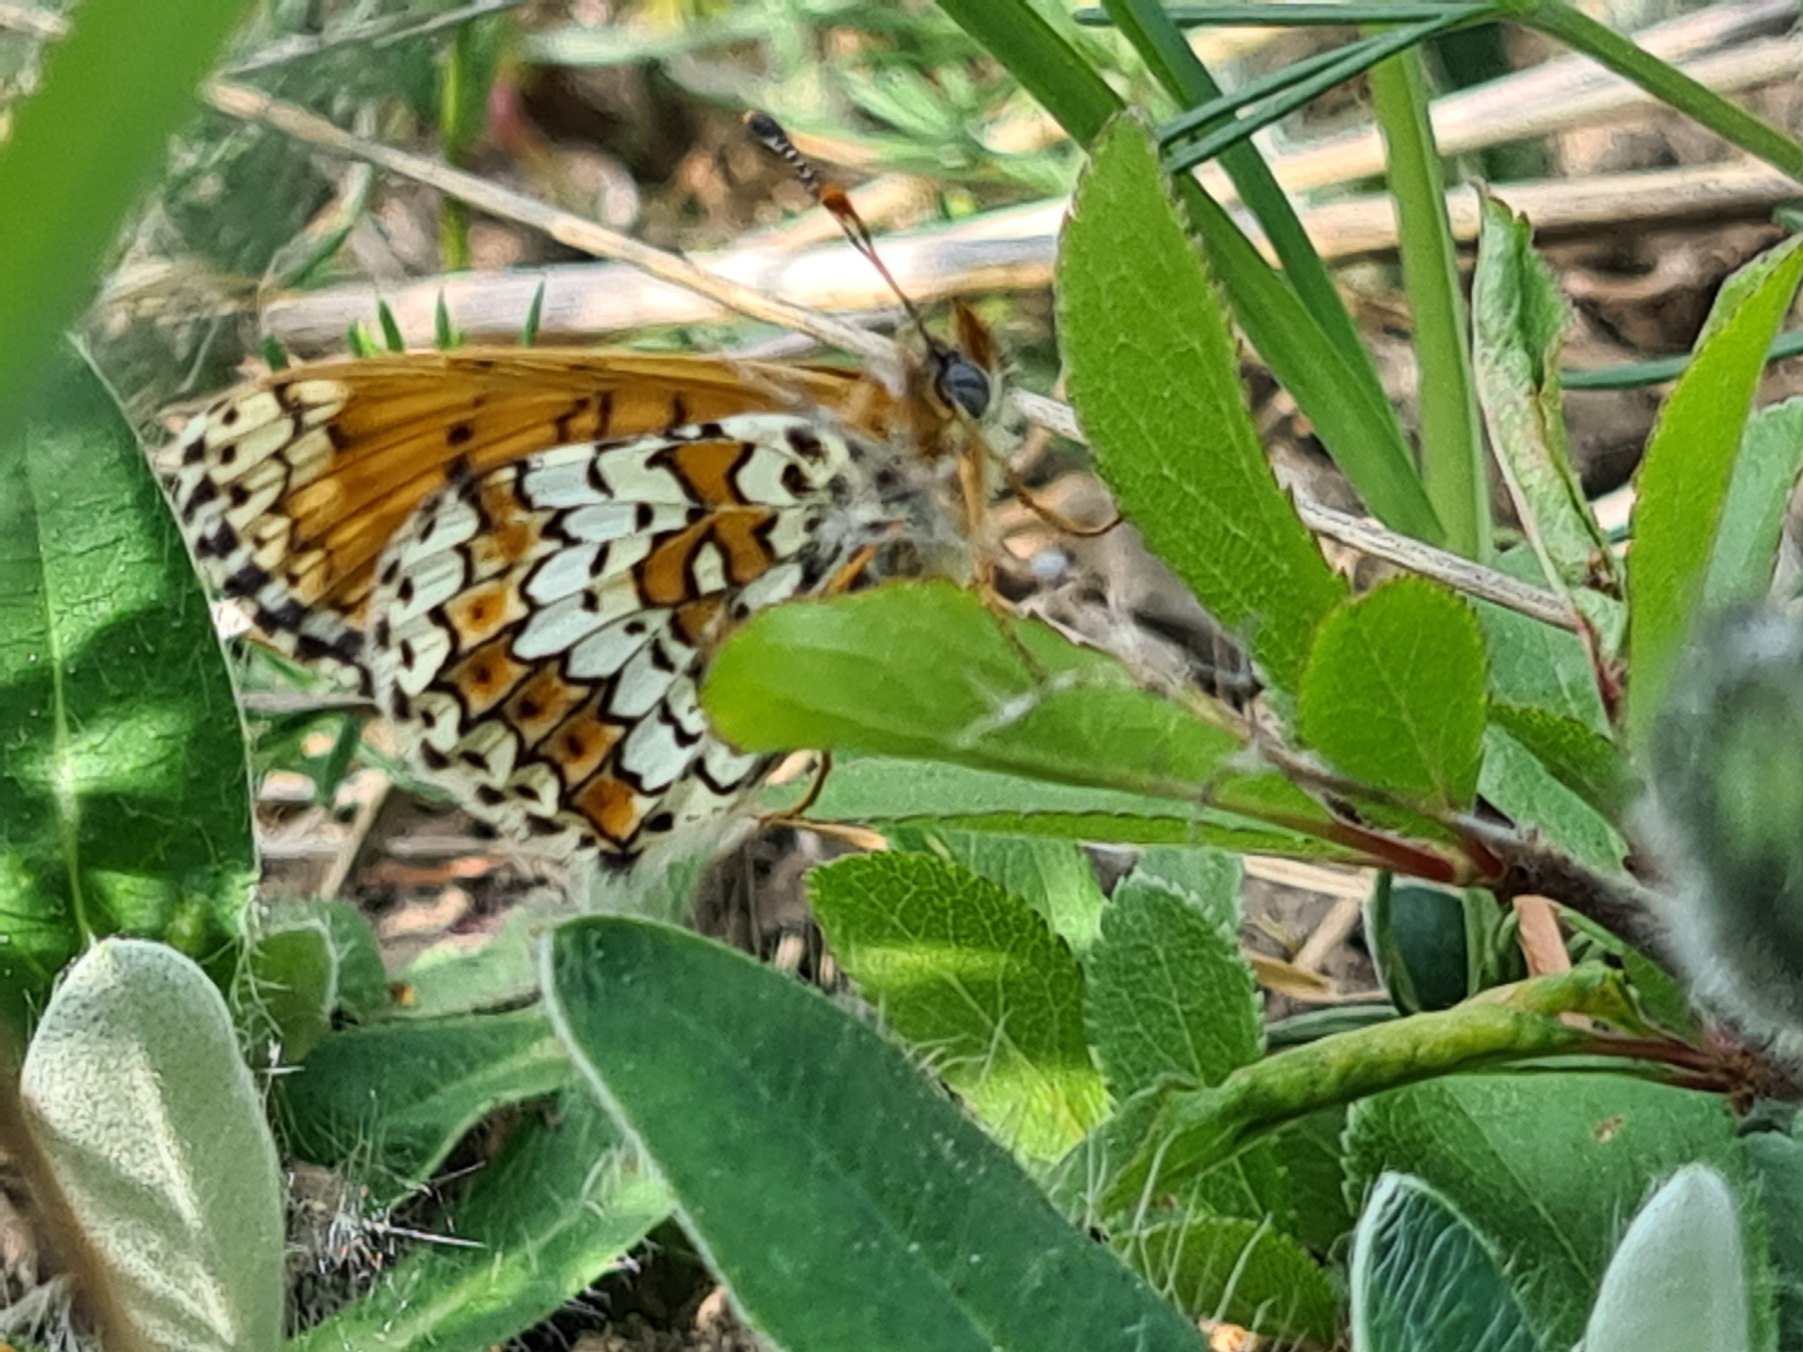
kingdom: Animalia
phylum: Arthropoda
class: Insecta
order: Lepidoptera
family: Nymphalidae
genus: Melitaea
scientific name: Melitaea cinxia
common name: Okkergul pletvinge
